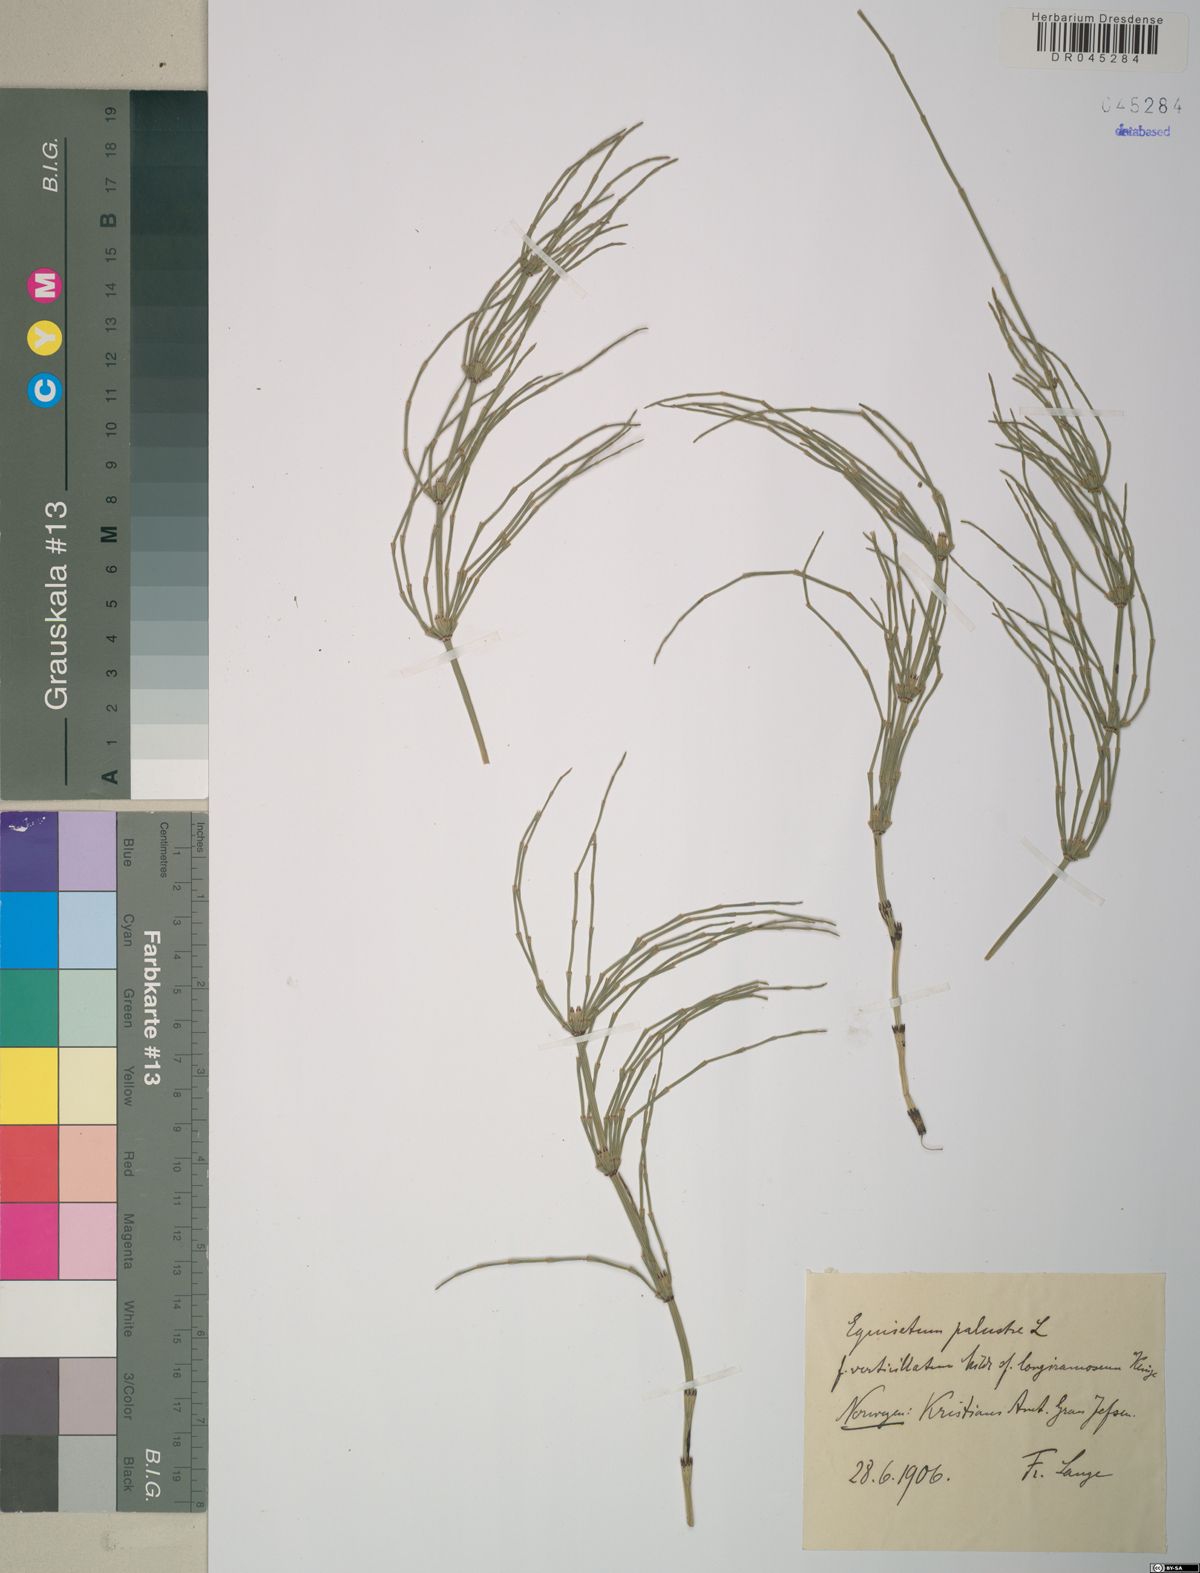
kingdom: Plantae
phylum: Tracheophyta
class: Polypodiopsida
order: Equisetales
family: Equisetaceae
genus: Equisetum
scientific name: Equisetum palustre
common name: Marsh horsetail
